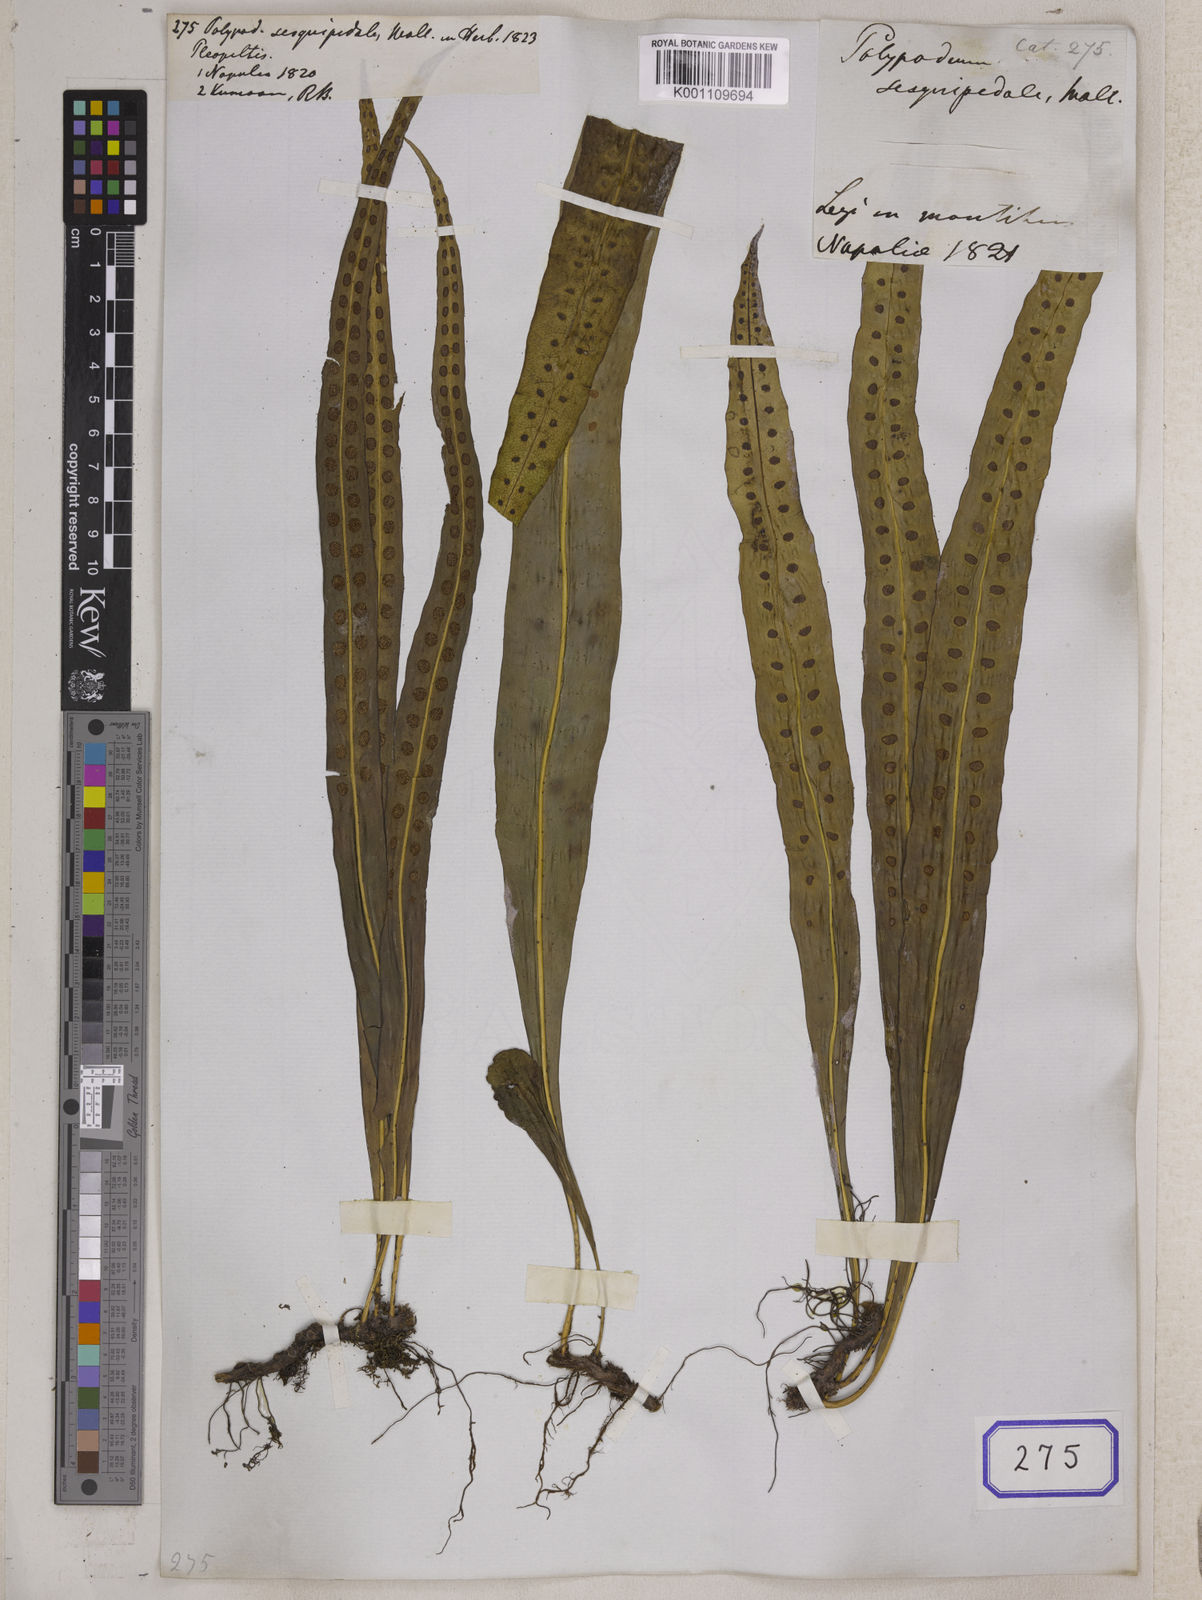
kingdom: Plantae
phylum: Tracheophyta
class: Polypodiopsida
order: Polypodiales
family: Polypodiaceae
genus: Lepisorus
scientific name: Lepisorus nudus
